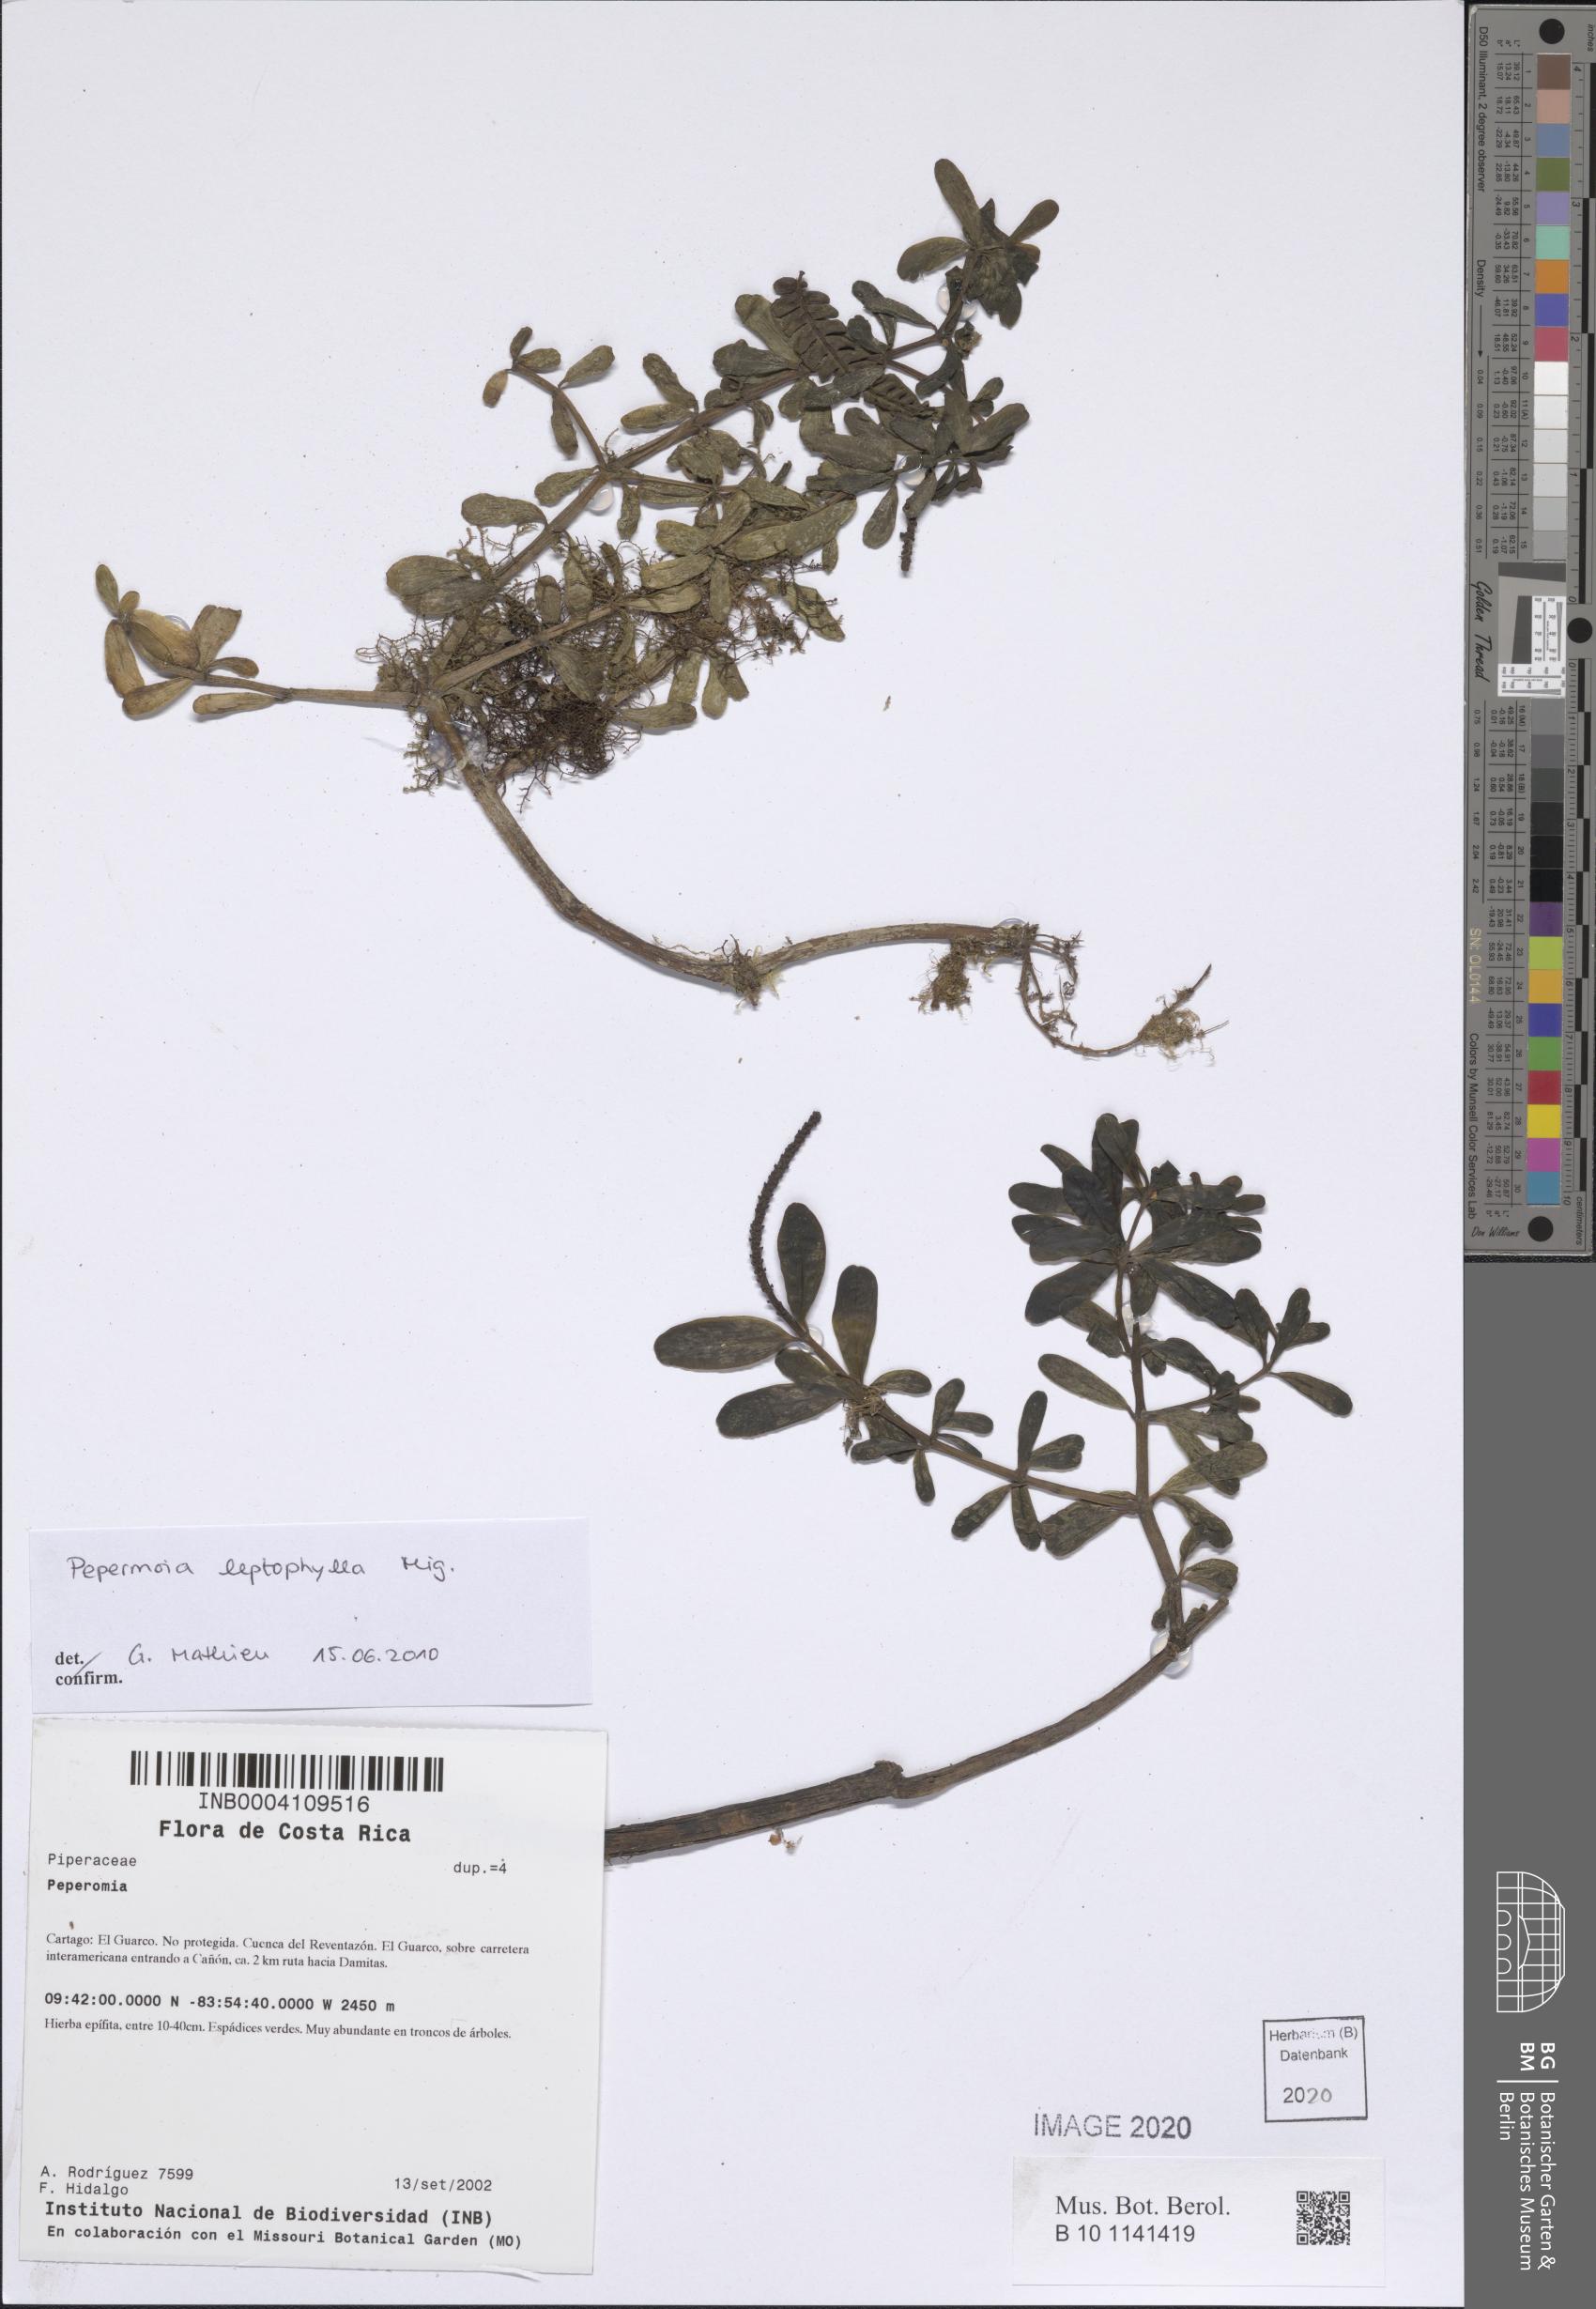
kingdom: Plantae
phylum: Tracheophyta
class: Magnoliopsida
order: Piperales
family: Piperaceae
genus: Peperomia
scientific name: Peperomia leptophylla
